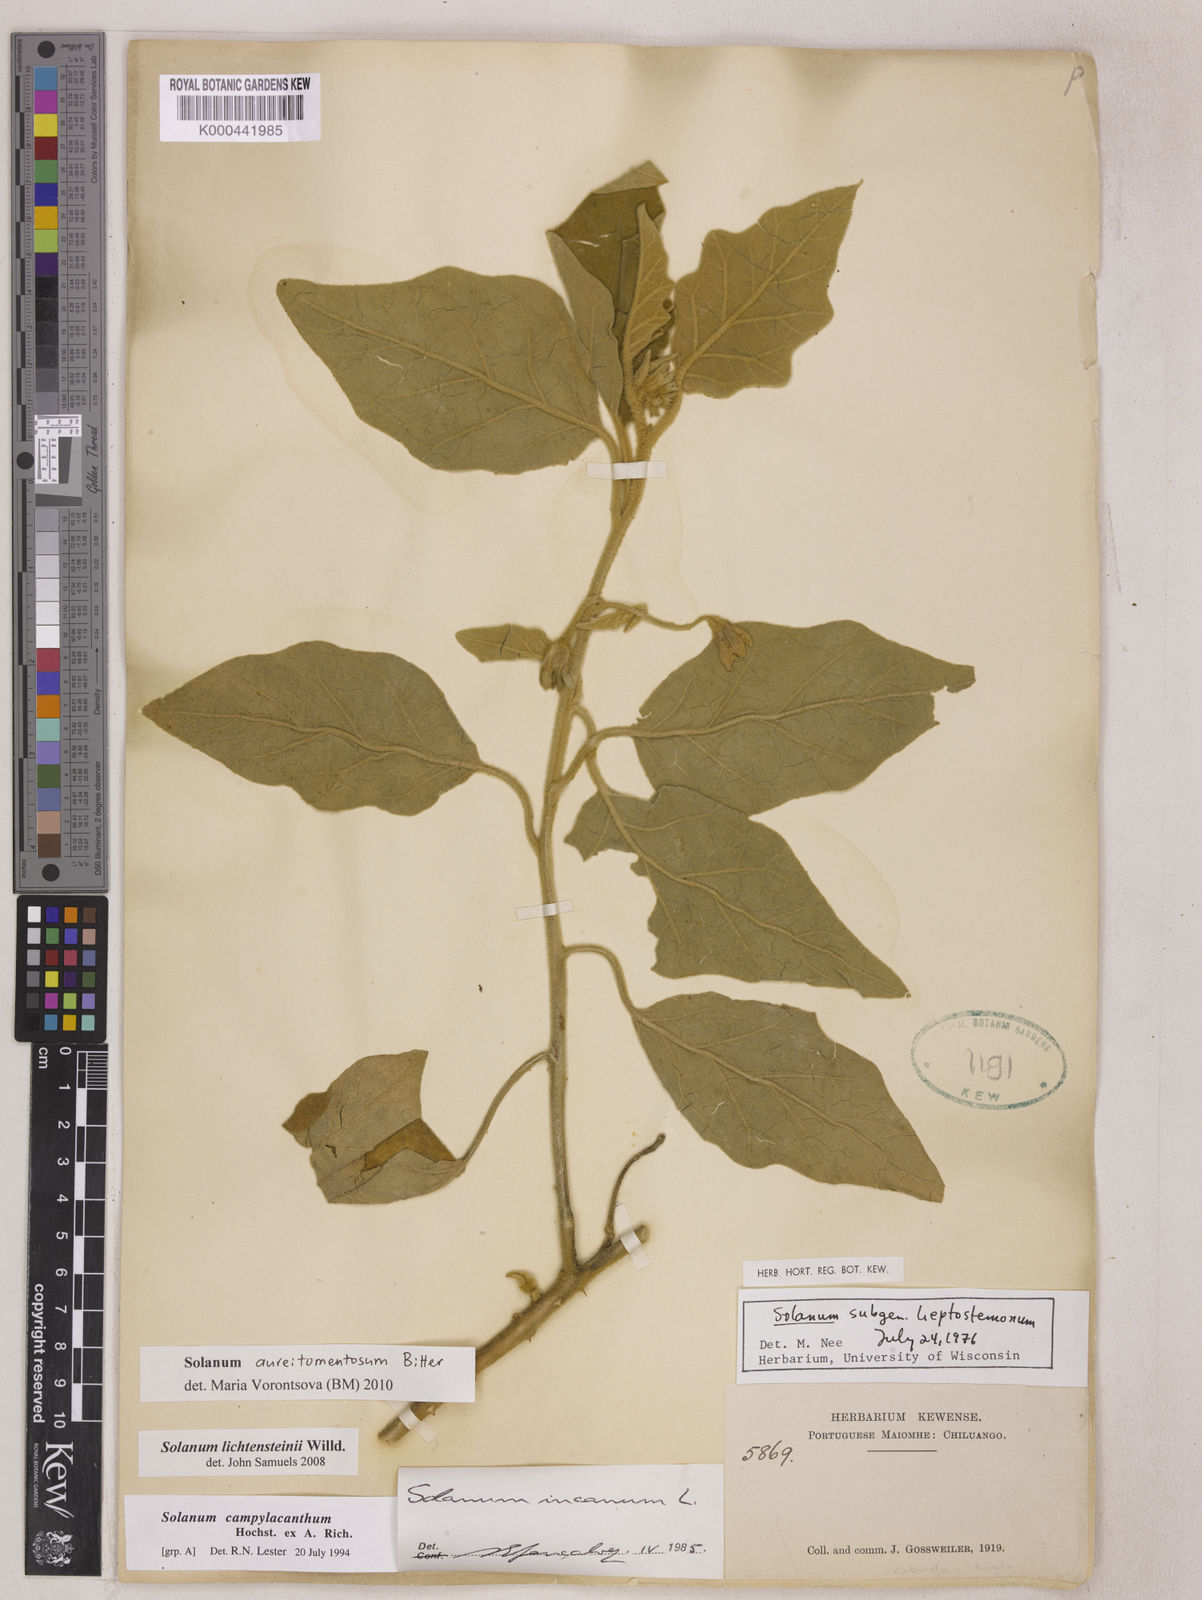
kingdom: Plantae
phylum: Tracheophyta
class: Magnoliopsida
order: Solanales
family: Solanaceae
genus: Solanum
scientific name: Solanum aureitomentosum
